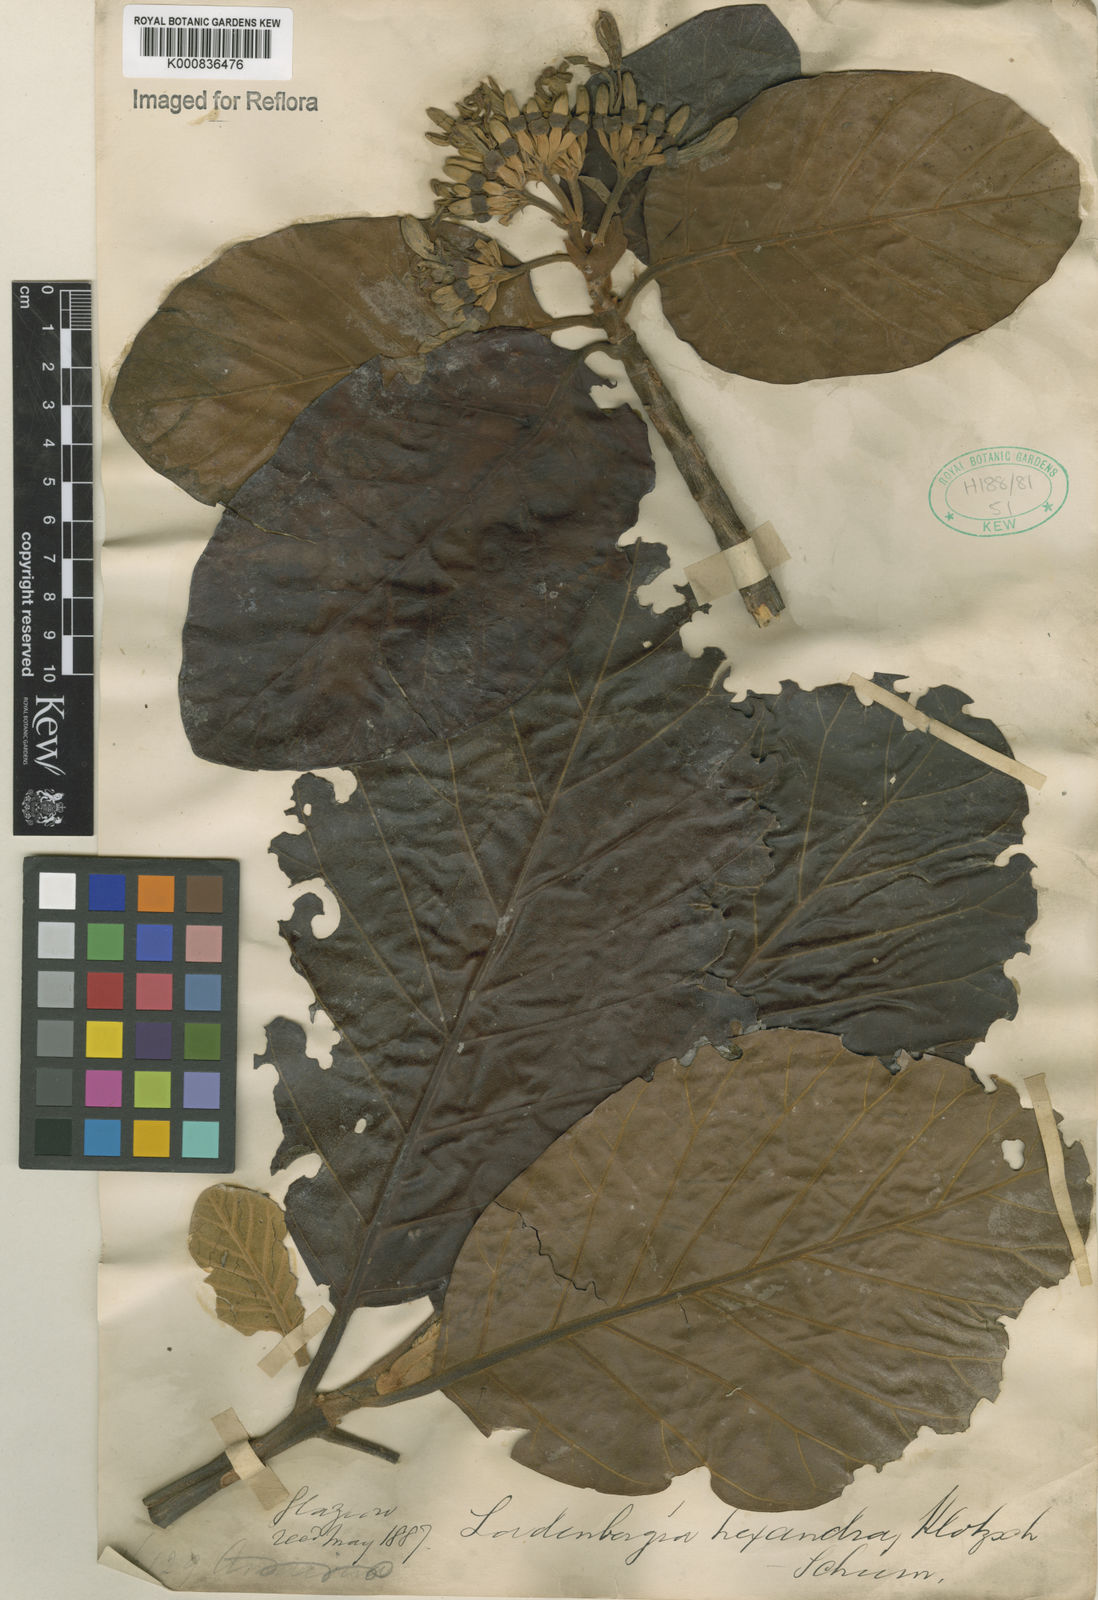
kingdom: Plantae
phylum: Tracheophyta
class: Magnoliopsida
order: Gentianales
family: Rubiaceae
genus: Ladenbergia
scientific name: Ladenbergia hexandra
